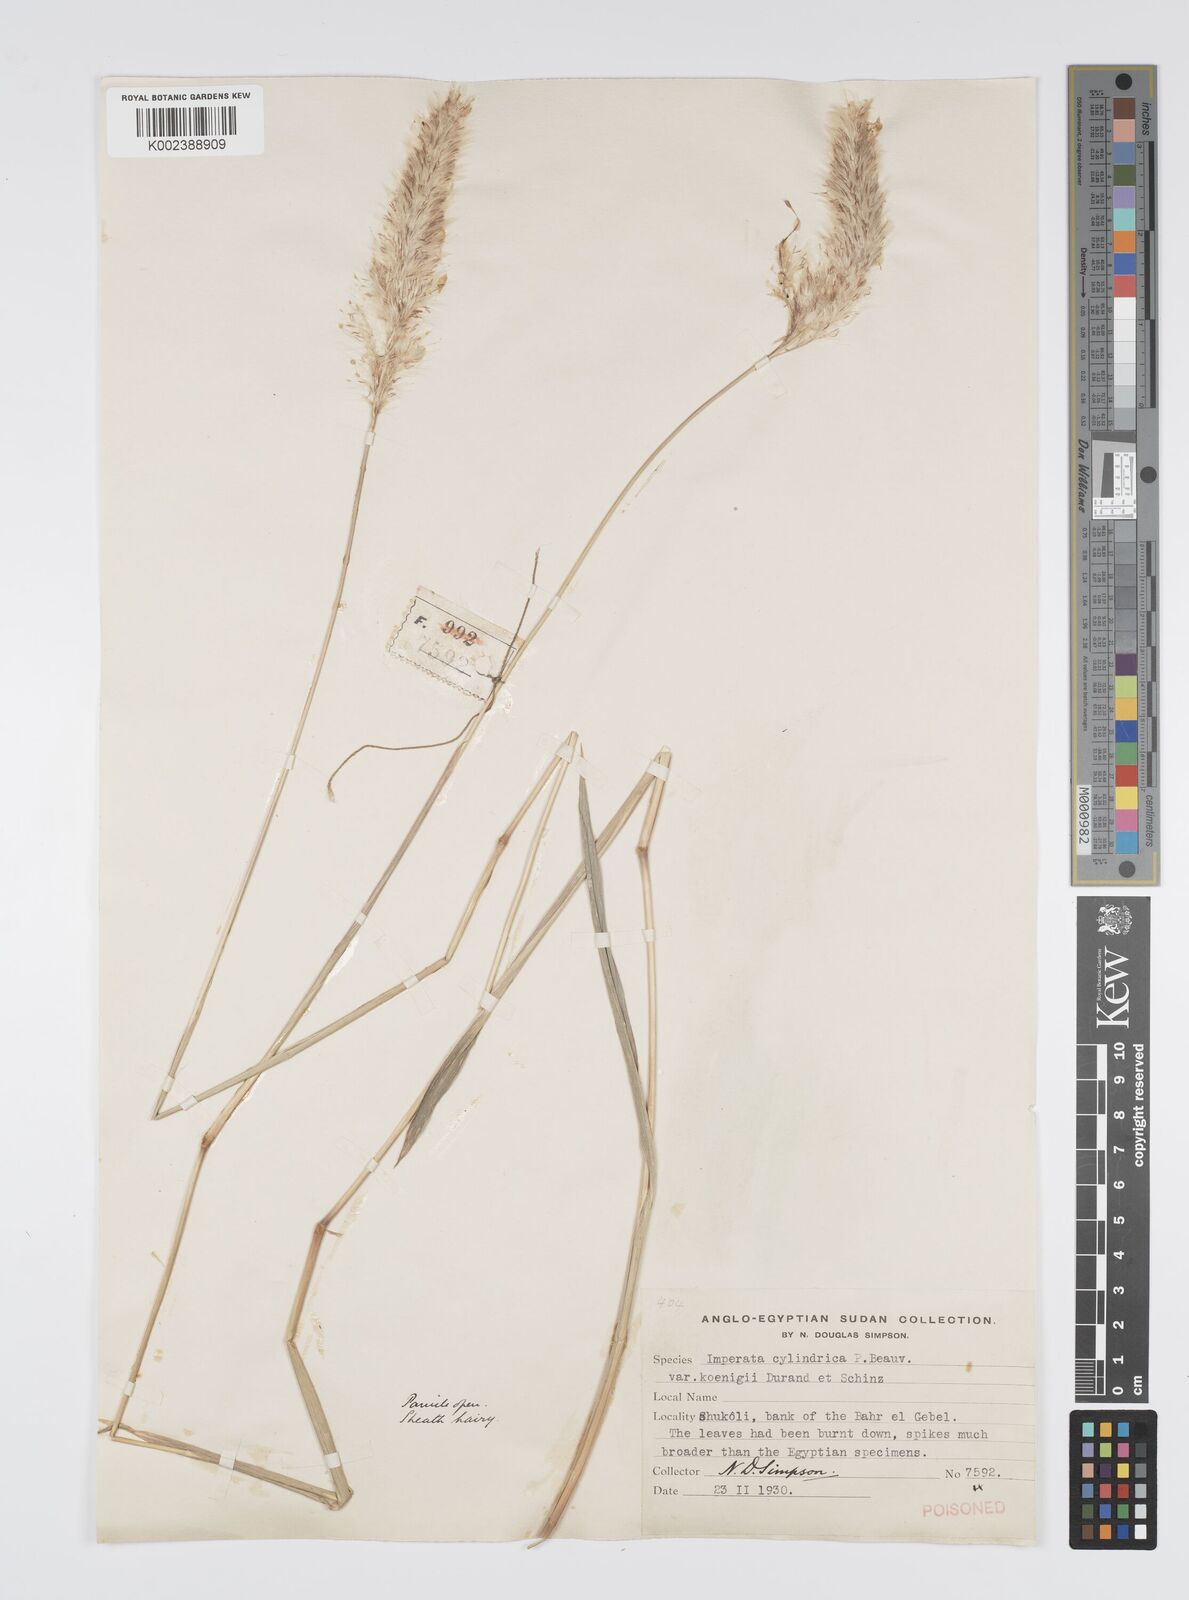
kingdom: Plantae
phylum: Tracheophyta
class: Liliopsida
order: Poales
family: Poaceae
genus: Imperata
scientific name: Imperata cylindrica
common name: Cogongrass
